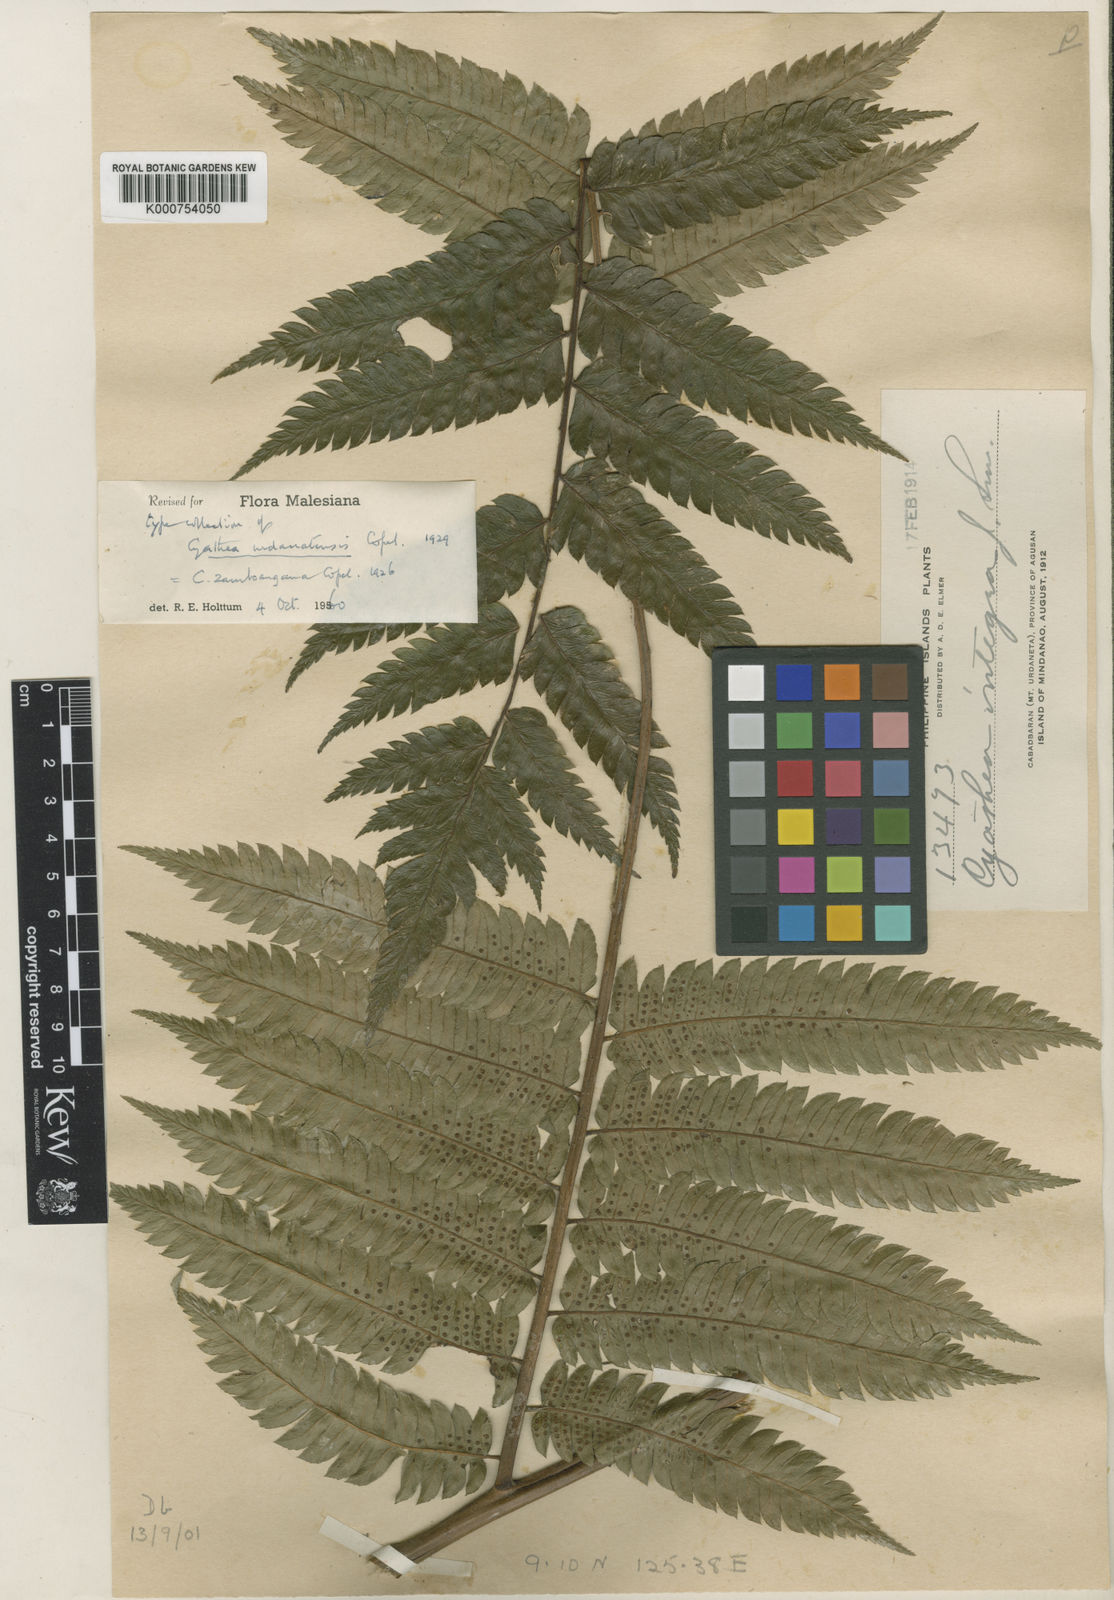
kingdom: Plantae
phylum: Tracheophyta
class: Polypodiopsida
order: Cyatheales
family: Cyatheaceae
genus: Sphaeropteris
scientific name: Sphaeropteris zamboangana
